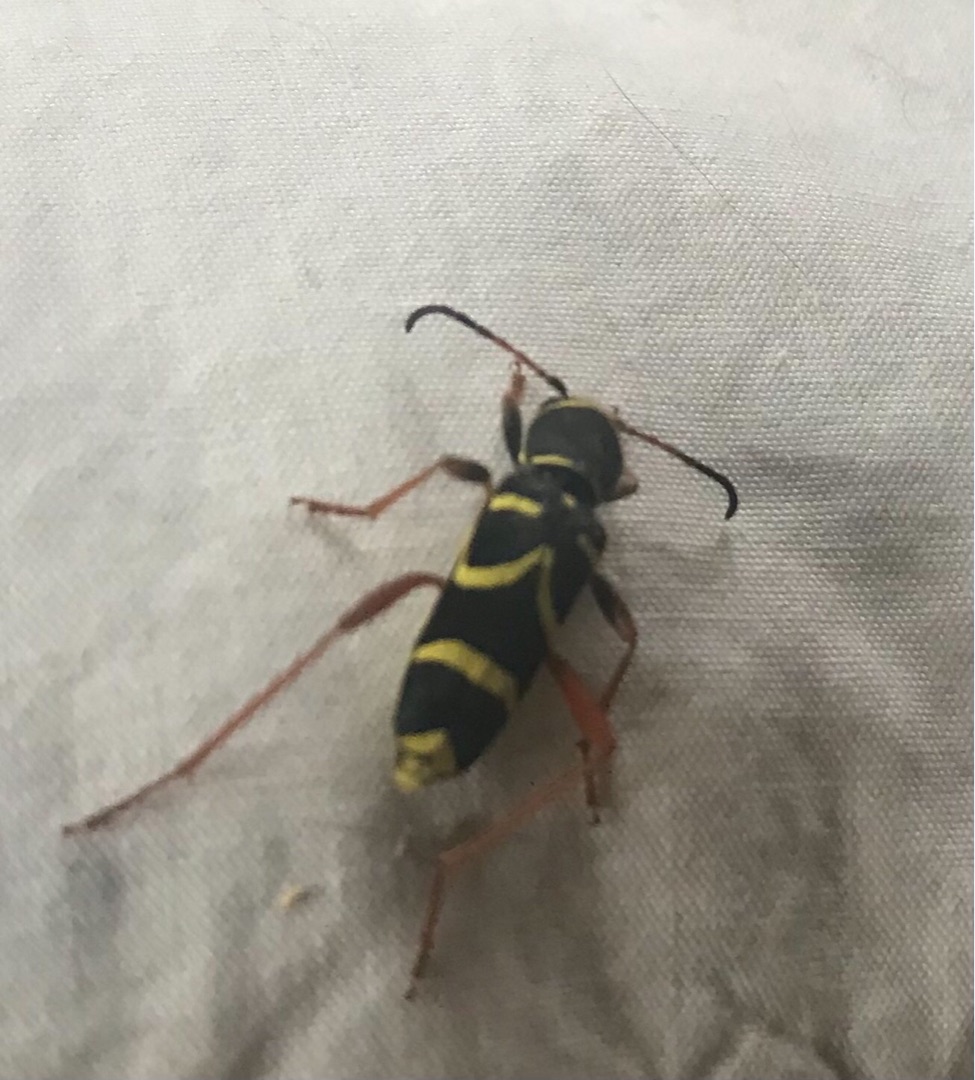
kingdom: Animalia
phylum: Arthropoda
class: Insecta
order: Coleoptera
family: Cerambycidae
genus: Clytus
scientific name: Clytus arietis
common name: Lille hvepsebuk
